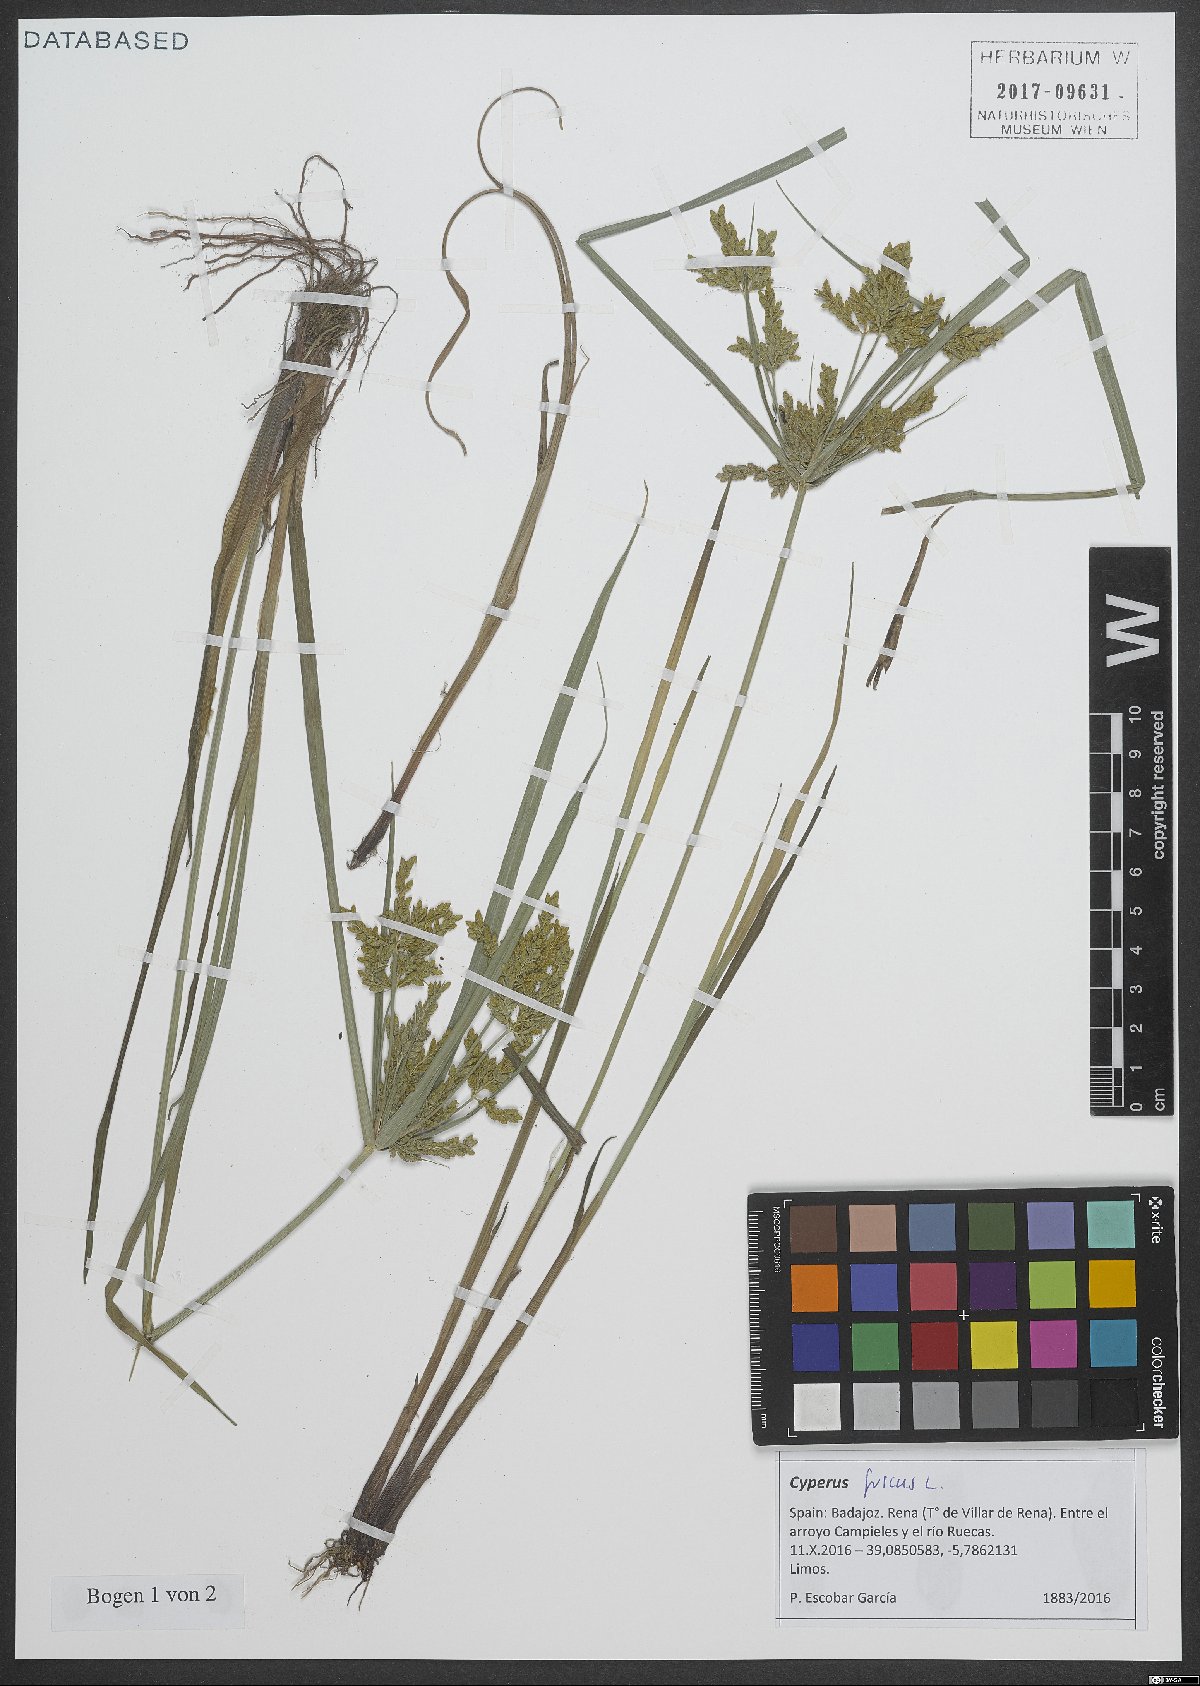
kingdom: Plantae
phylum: Tracheophyta
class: Liliopsida
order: Poales
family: Cyperaceae
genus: Cyperus
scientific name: Cyperus fuscus
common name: Brown galingale
